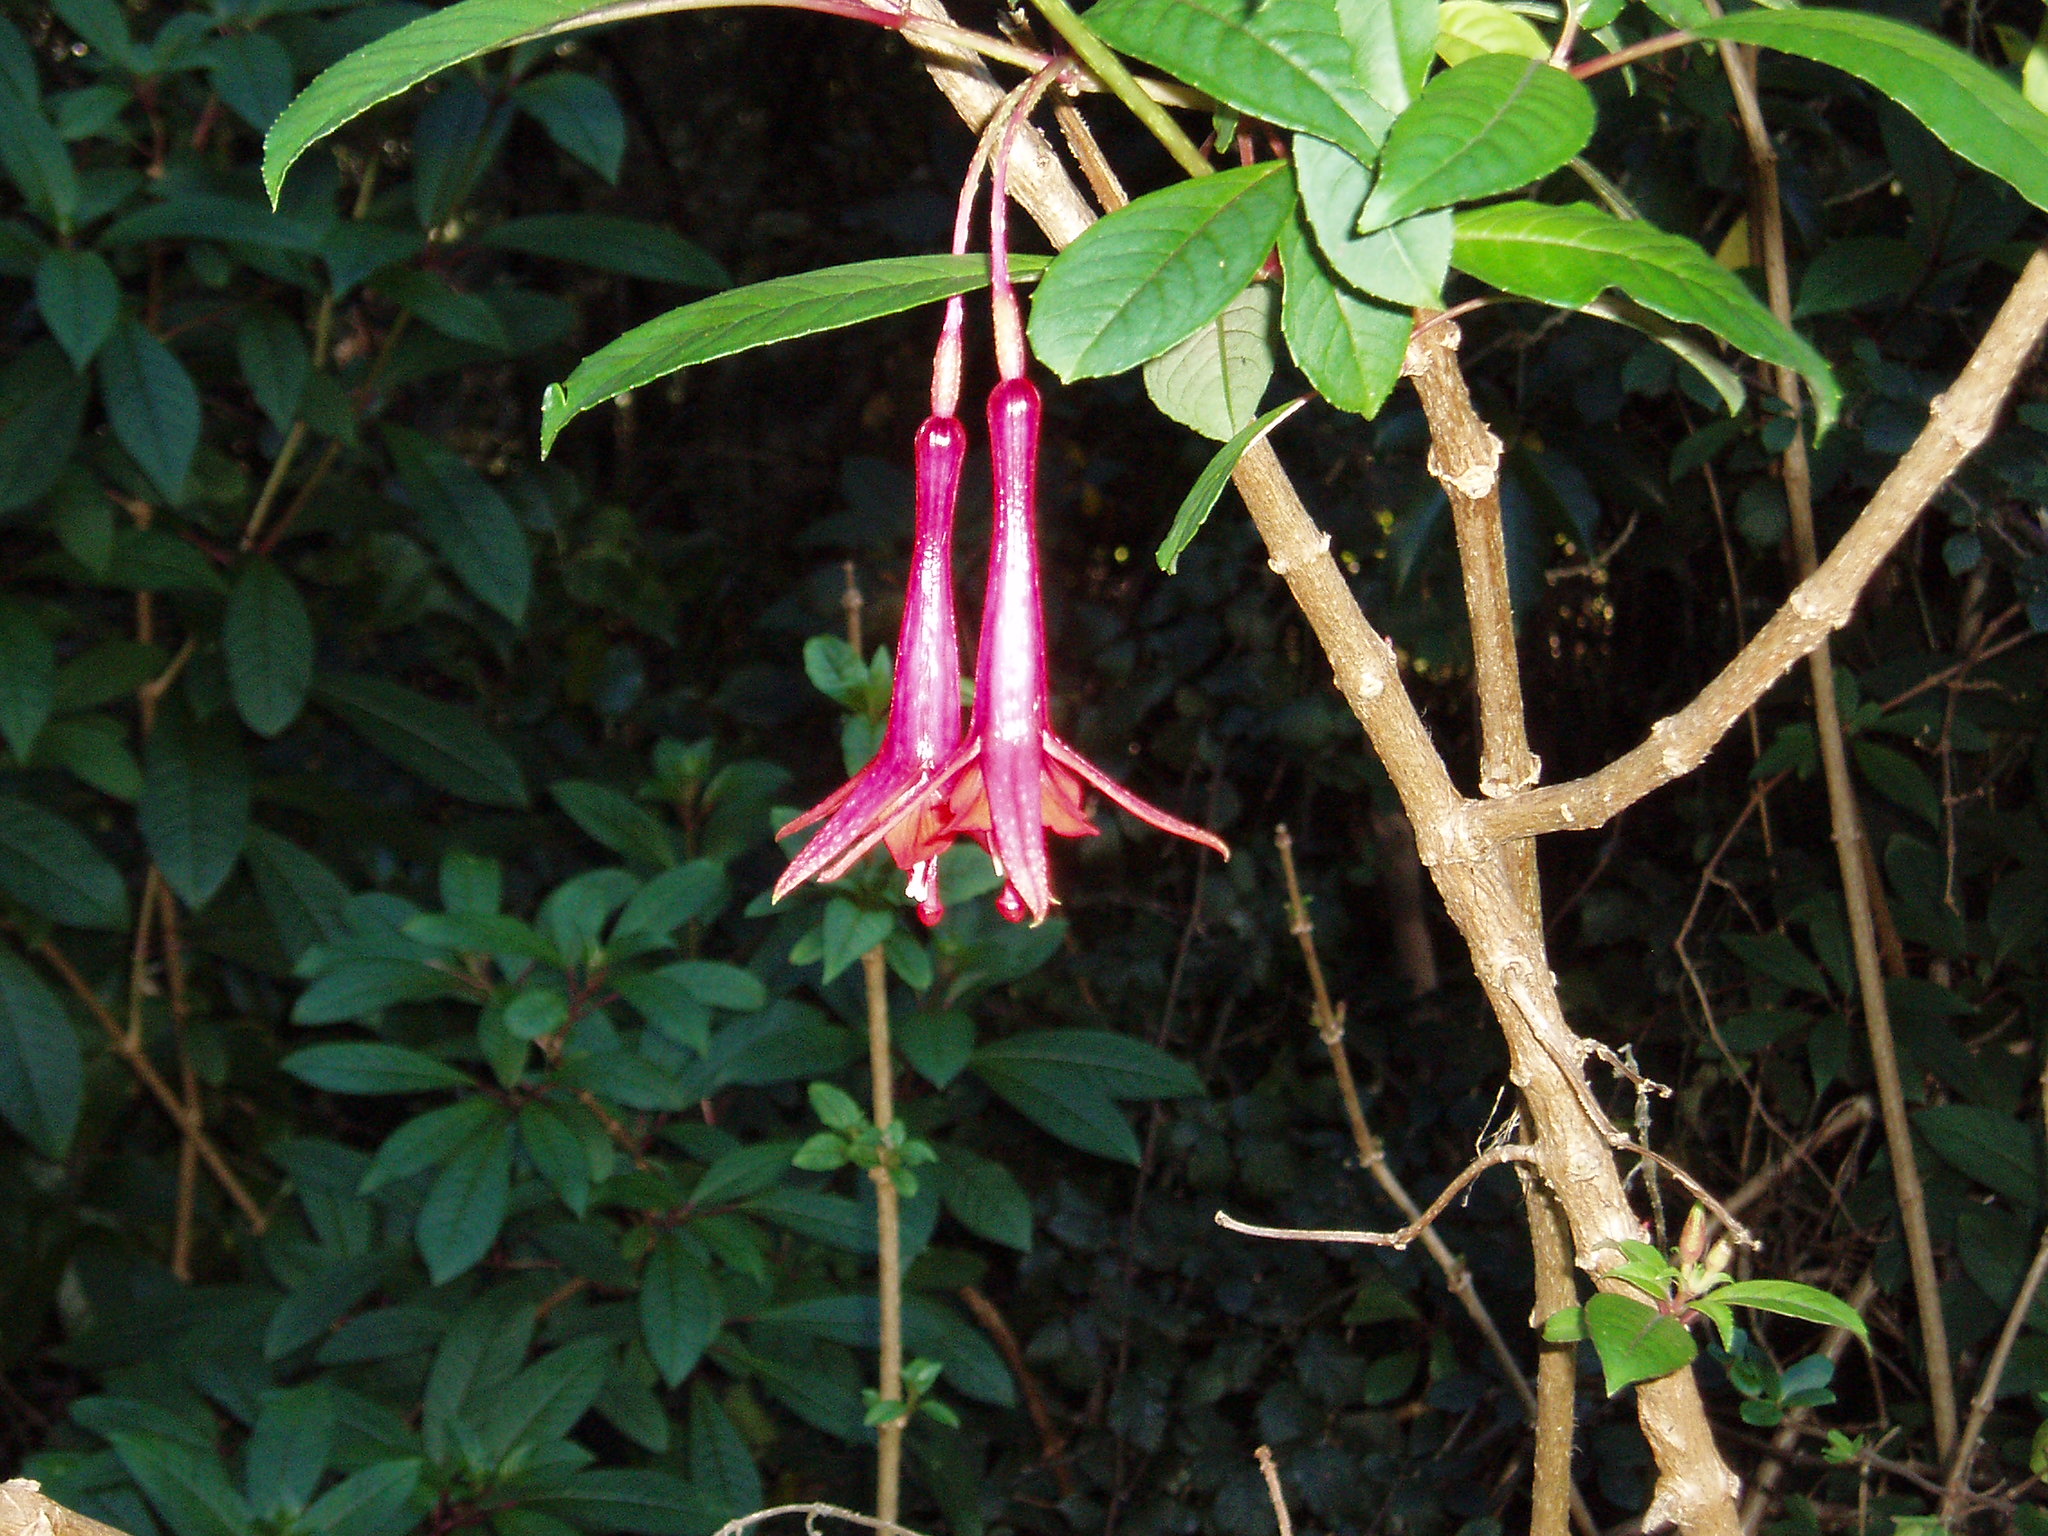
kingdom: Plantae
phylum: Tracheophyta
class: Magnoliopsida
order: Myrtales
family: Onagraceae
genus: Fuchsia
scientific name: Fuchsia denticulata
